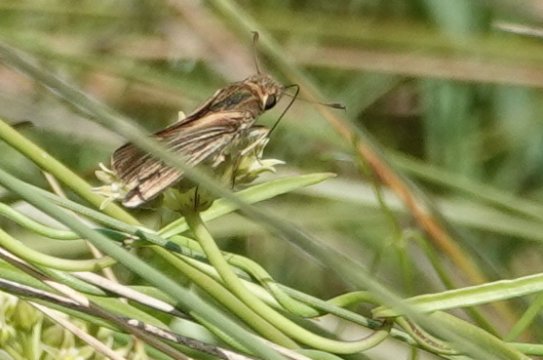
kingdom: Animalia
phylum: Arthropoda
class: Insecta
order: Lepidoptera
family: Hesperiidae
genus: Panoquina
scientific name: Panoquina panoquin
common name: Salt Marsh Skipper
